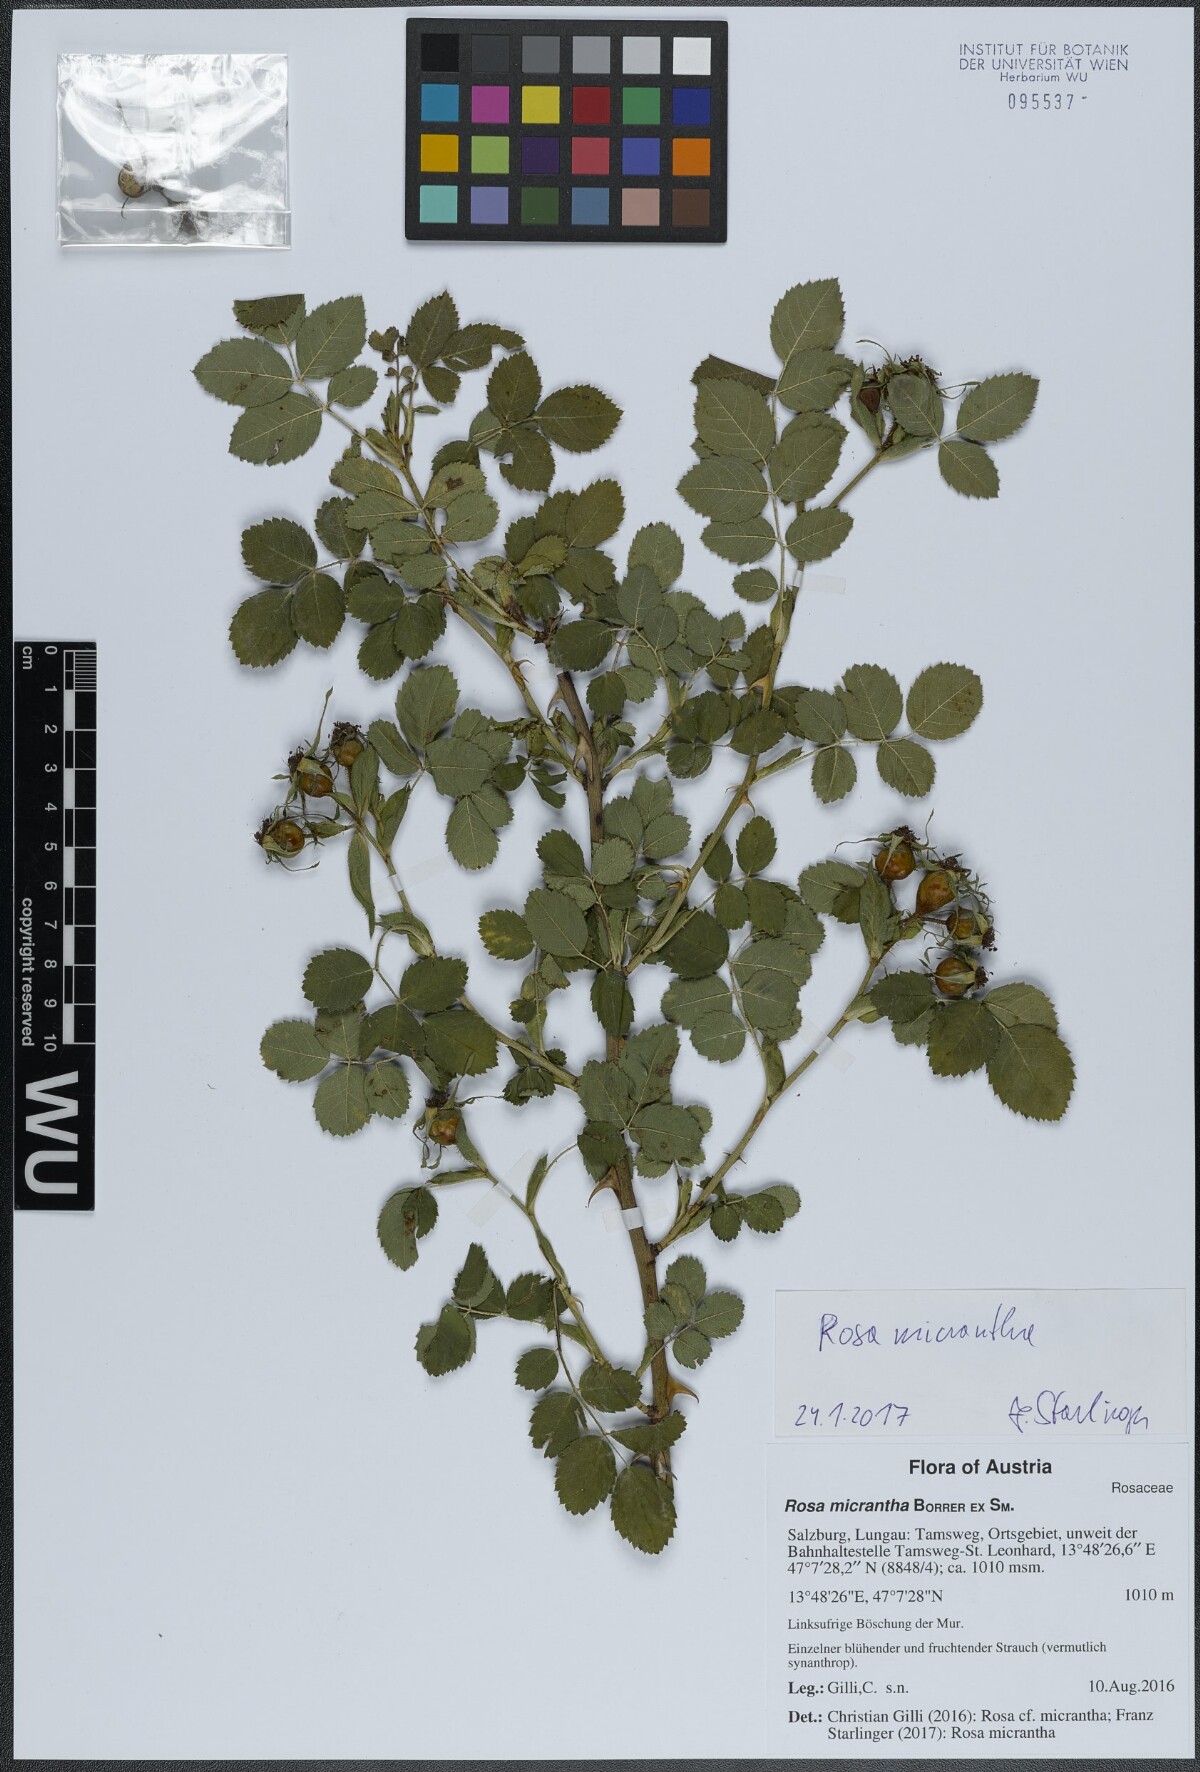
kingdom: Plantae
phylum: Tracheophyta
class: Magnoliopsida
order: Rosales
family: Rosaceae
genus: Rosa
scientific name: Rosa micrantha
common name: Small-flowered sweet-briar
